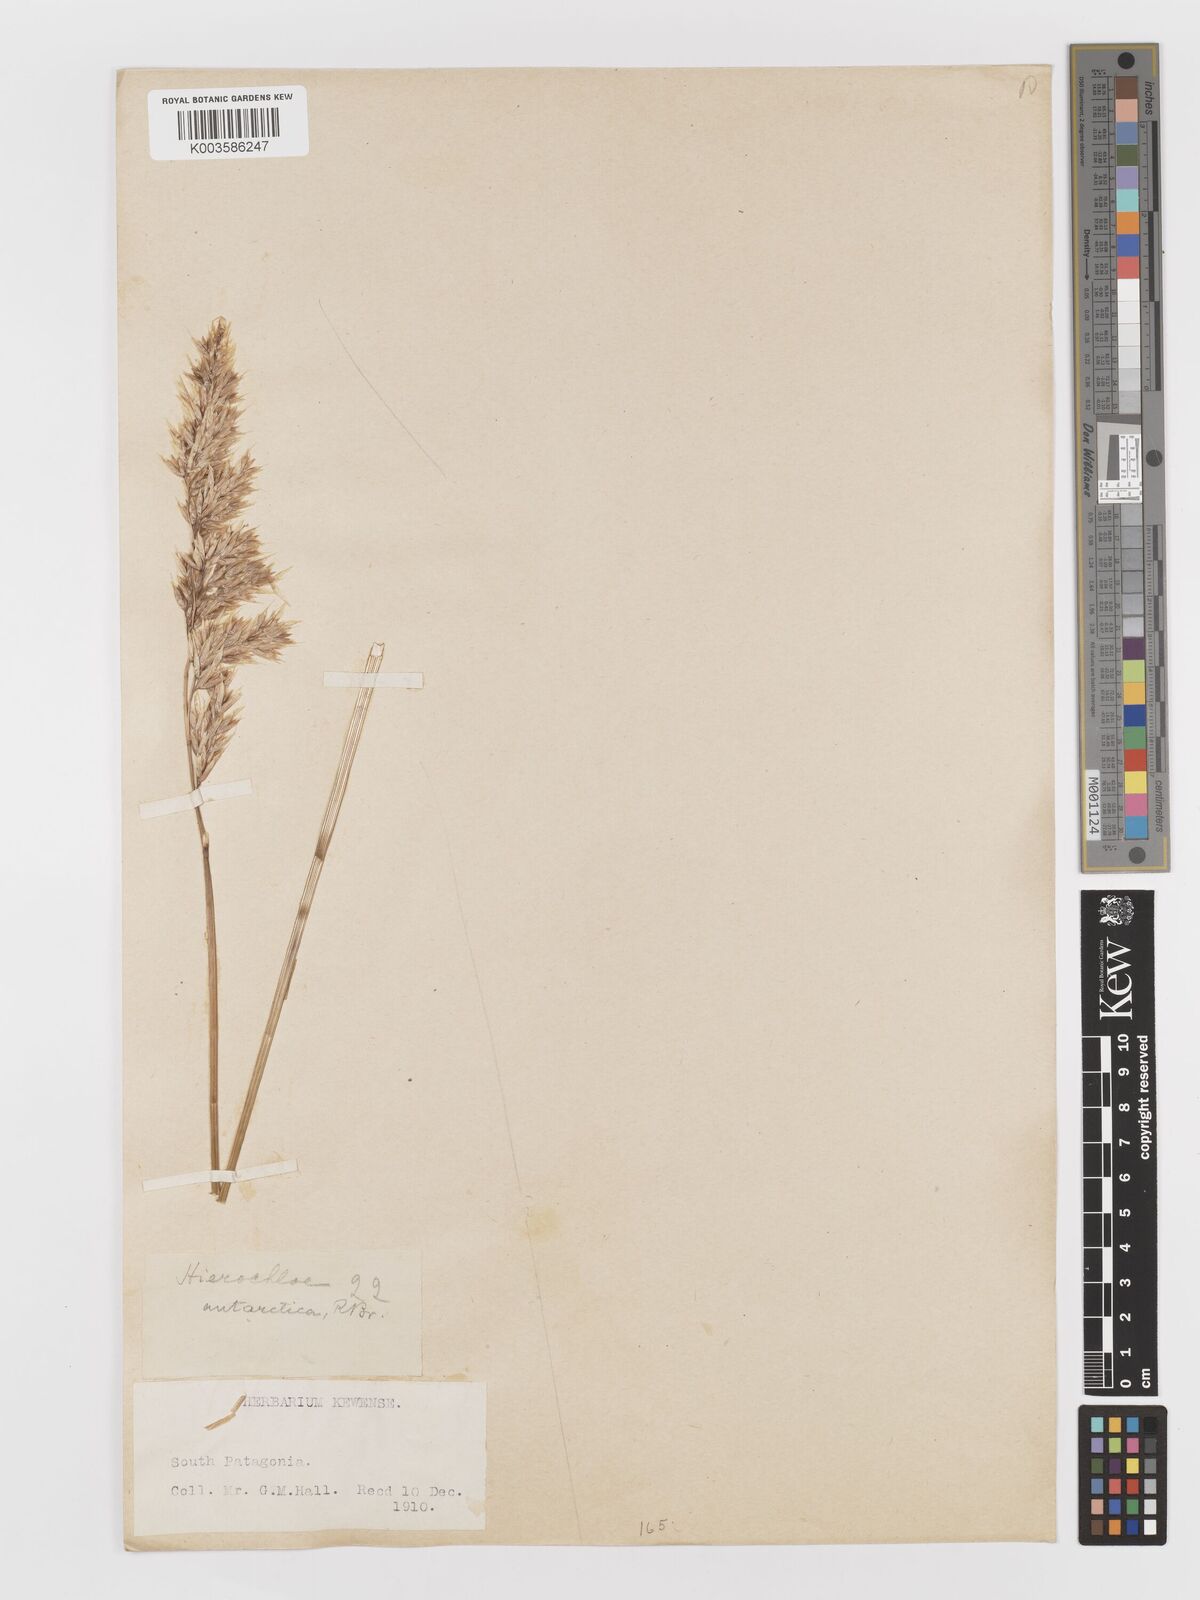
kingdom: Plantae
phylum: Tracheophyta
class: Liliopsida
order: Poales
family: Poaceae
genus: Anthoxanthum
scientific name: Anthoxanthum redolens
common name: Sweet holy grass
